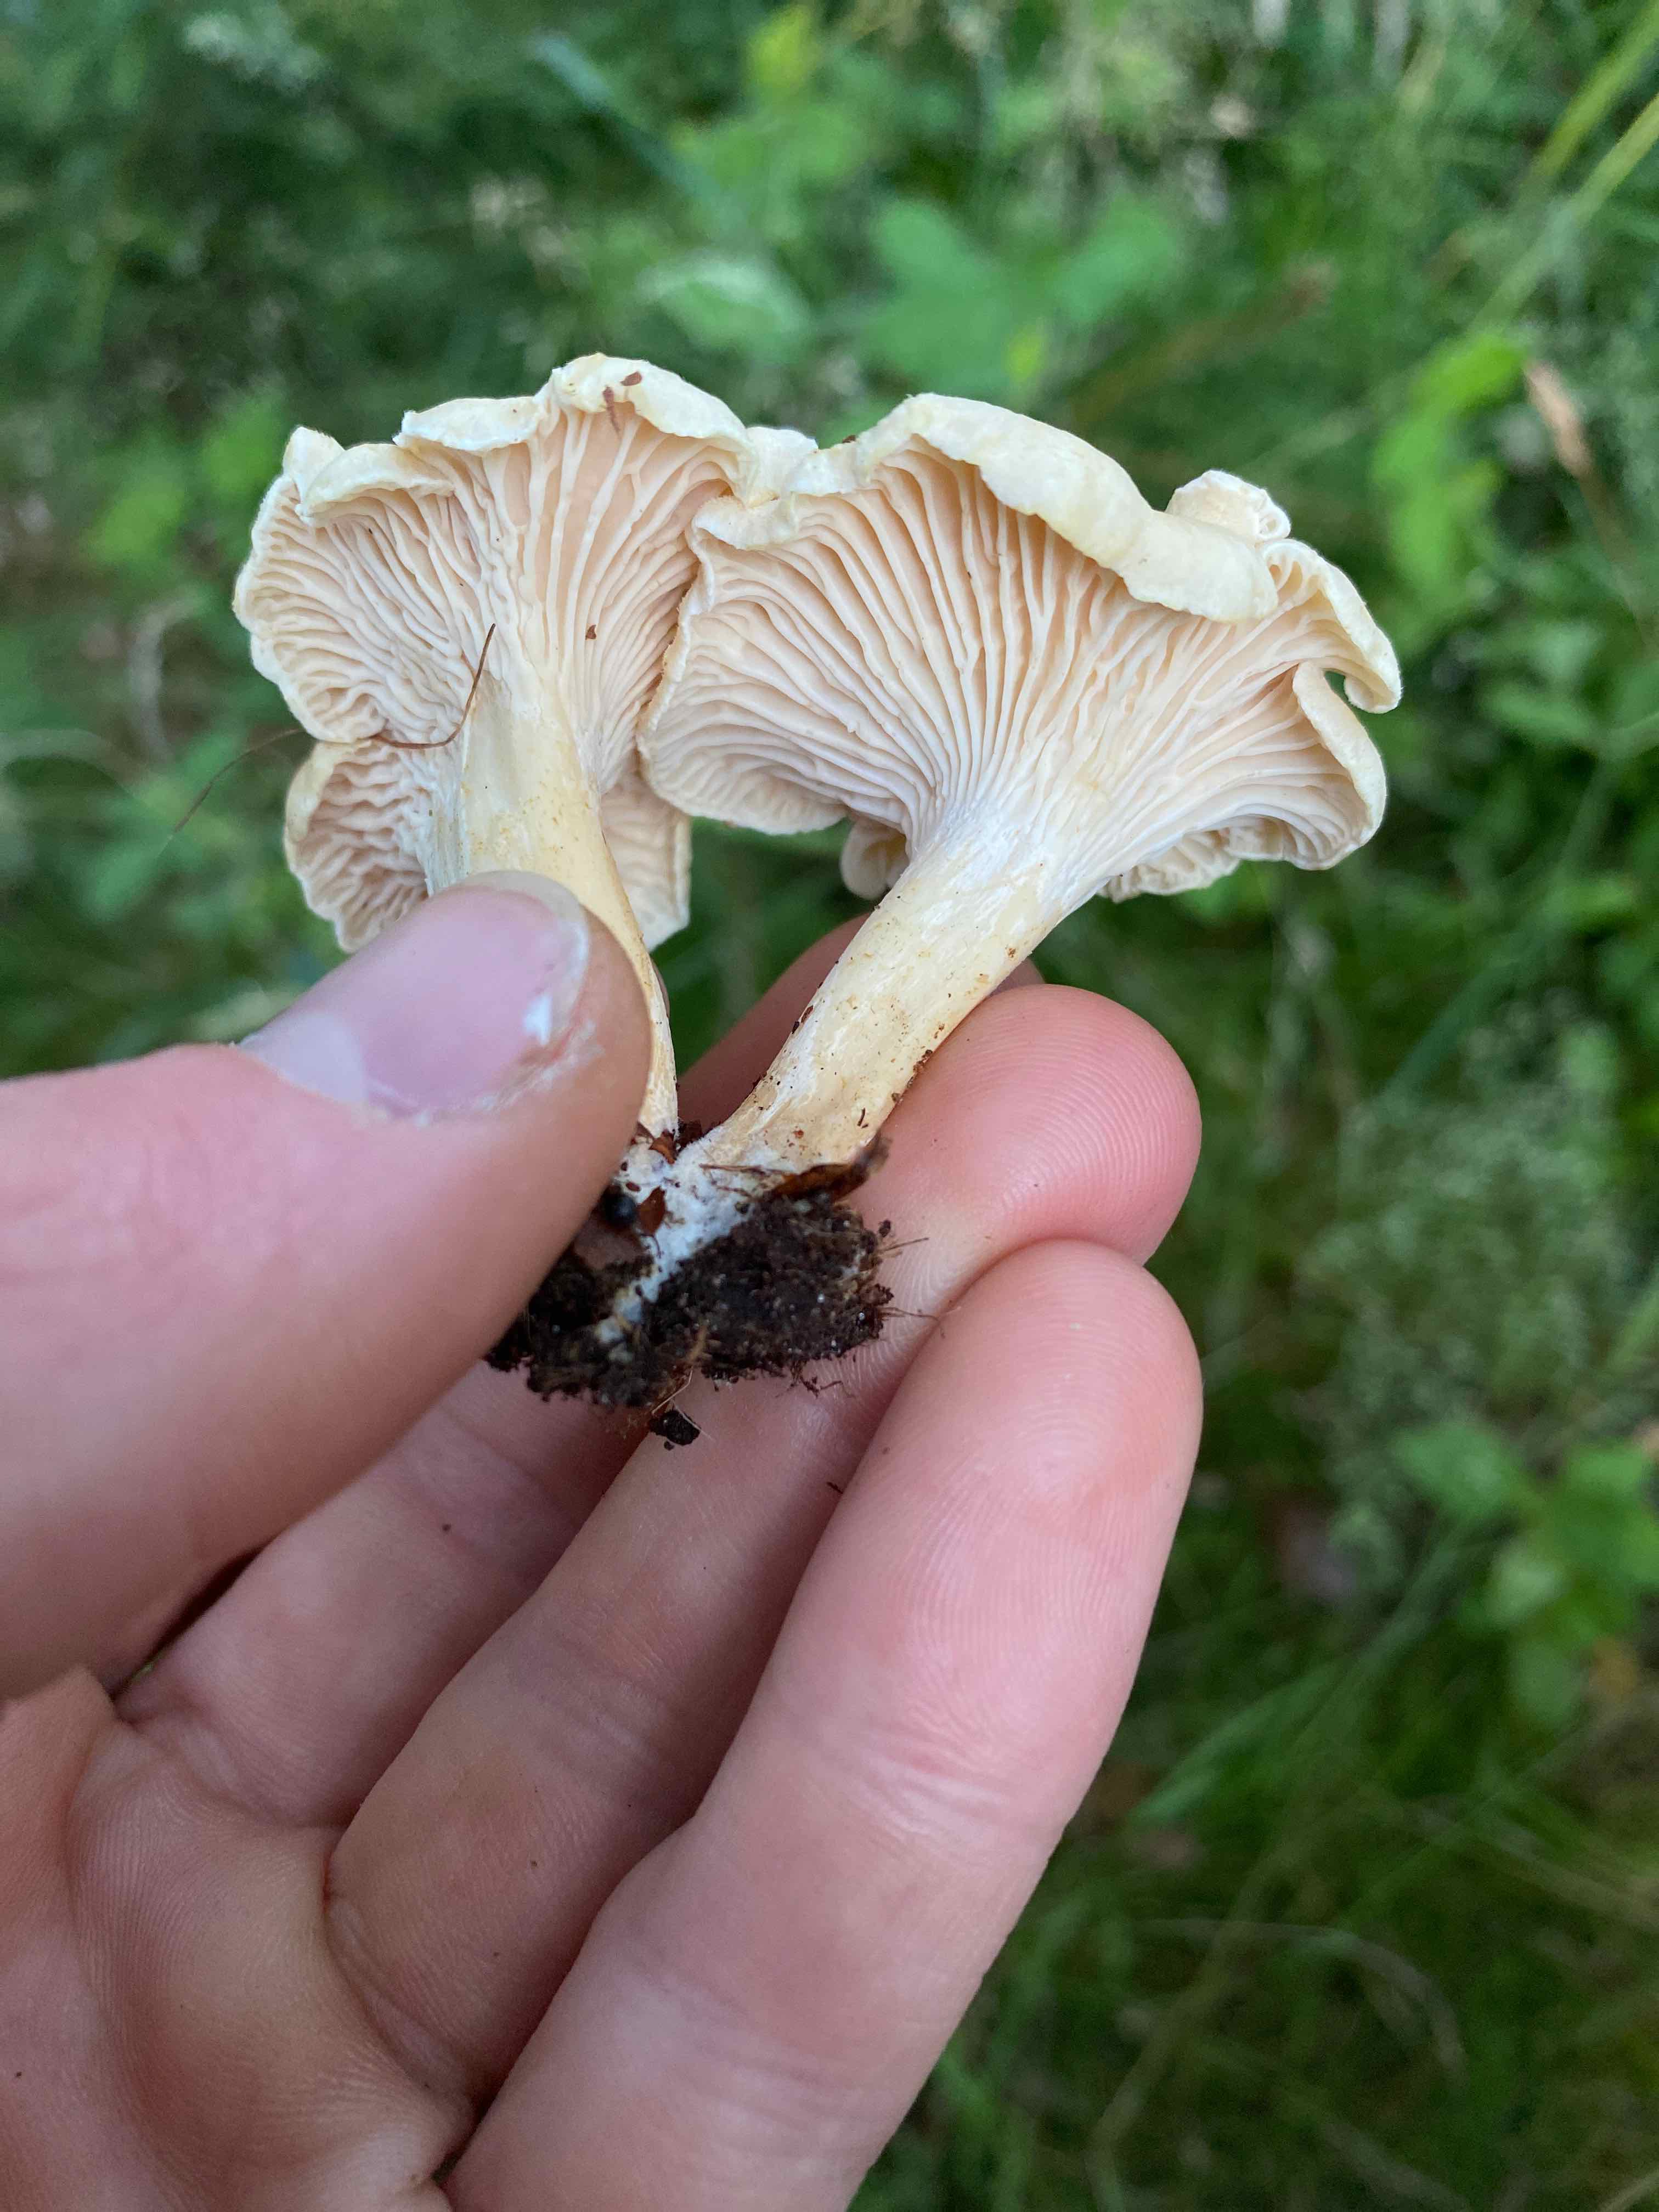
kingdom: Fungi
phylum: Basidiomycota
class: Agaricomycetes
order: Cantharellales
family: Hydnaceae
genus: Cantharellus
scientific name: Cantharellus pallens
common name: bleg kantarel
